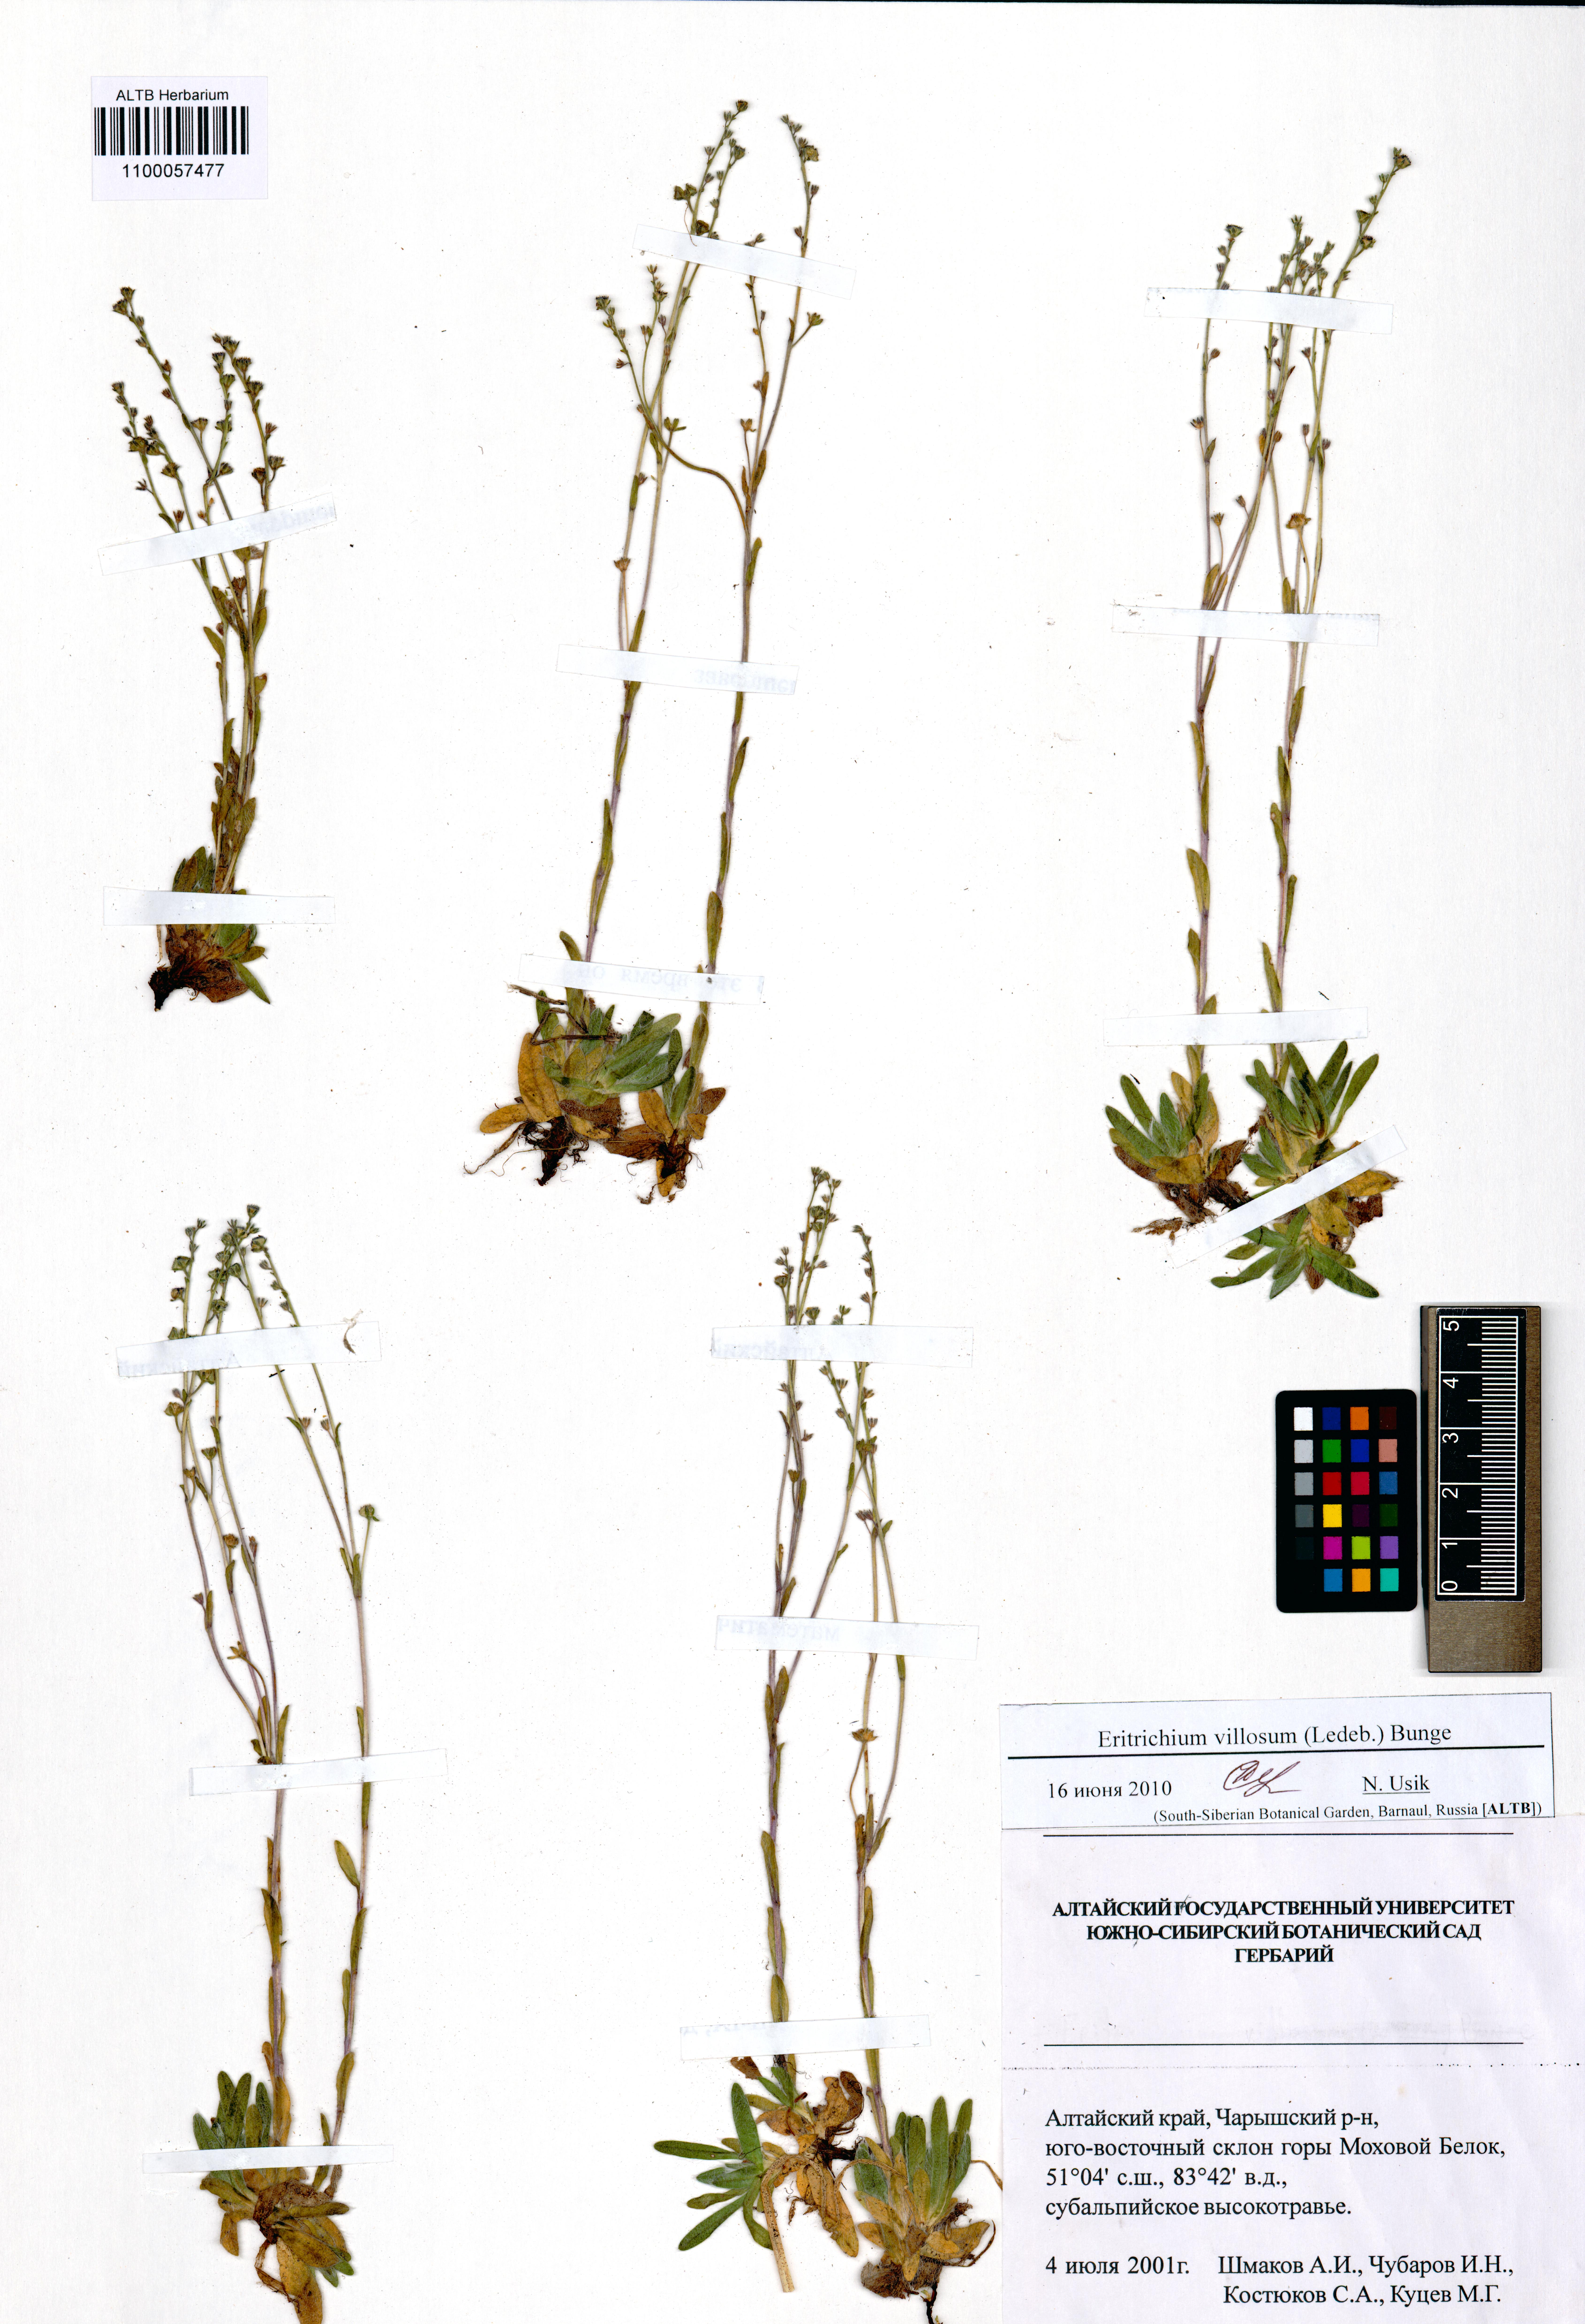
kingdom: Plantae
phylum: Tracheophyta
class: Magnoliopsida
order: Boraginales
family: Boraginaceae
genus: Eritrichium
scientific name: Eritrichium villosum
